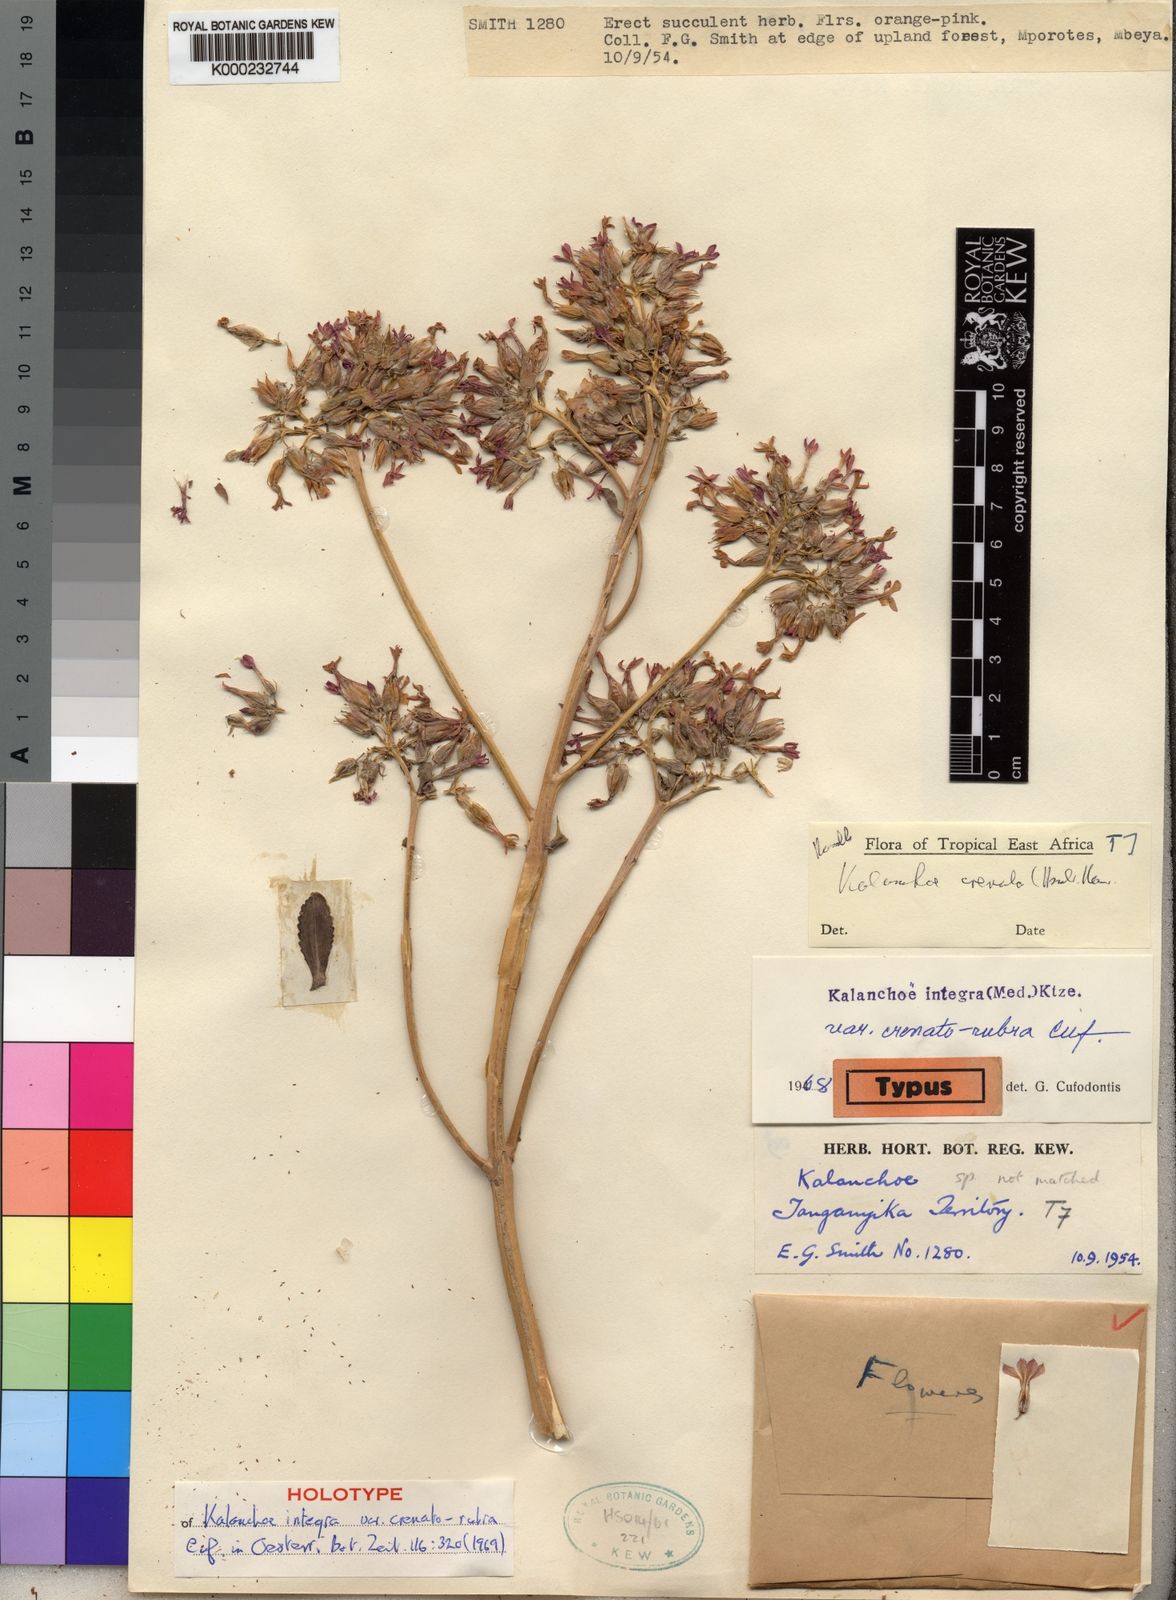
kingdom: Plantae
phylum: Tracheophyta
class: Magnoliopsida
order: Saxifragales
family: Crassulaceae
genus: Kalanchoe
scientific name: Kalanchoe crenata
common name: Neverdie
